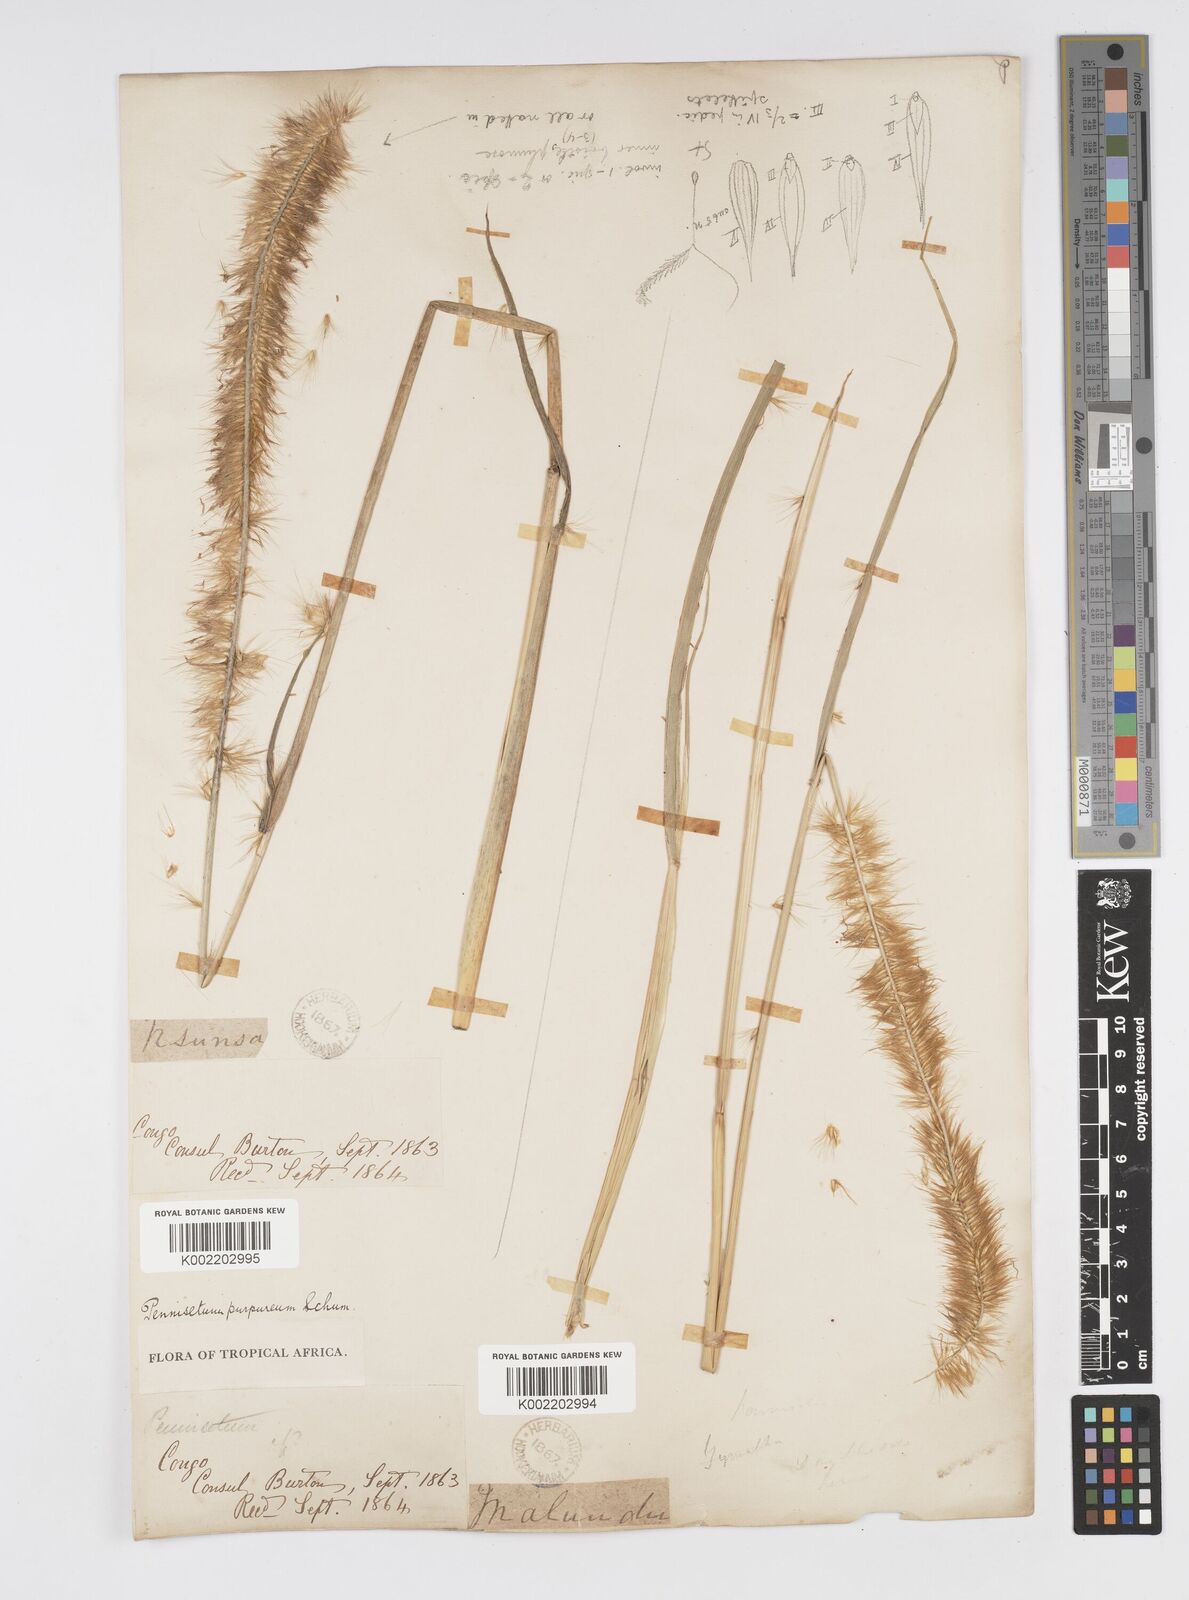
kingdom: Plantae
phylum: Tracheophyta
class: Liliopsida
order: Poales
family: Poaceae
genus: Cenchrus
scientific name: Cenchrus purpureus
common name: Elephant grass
